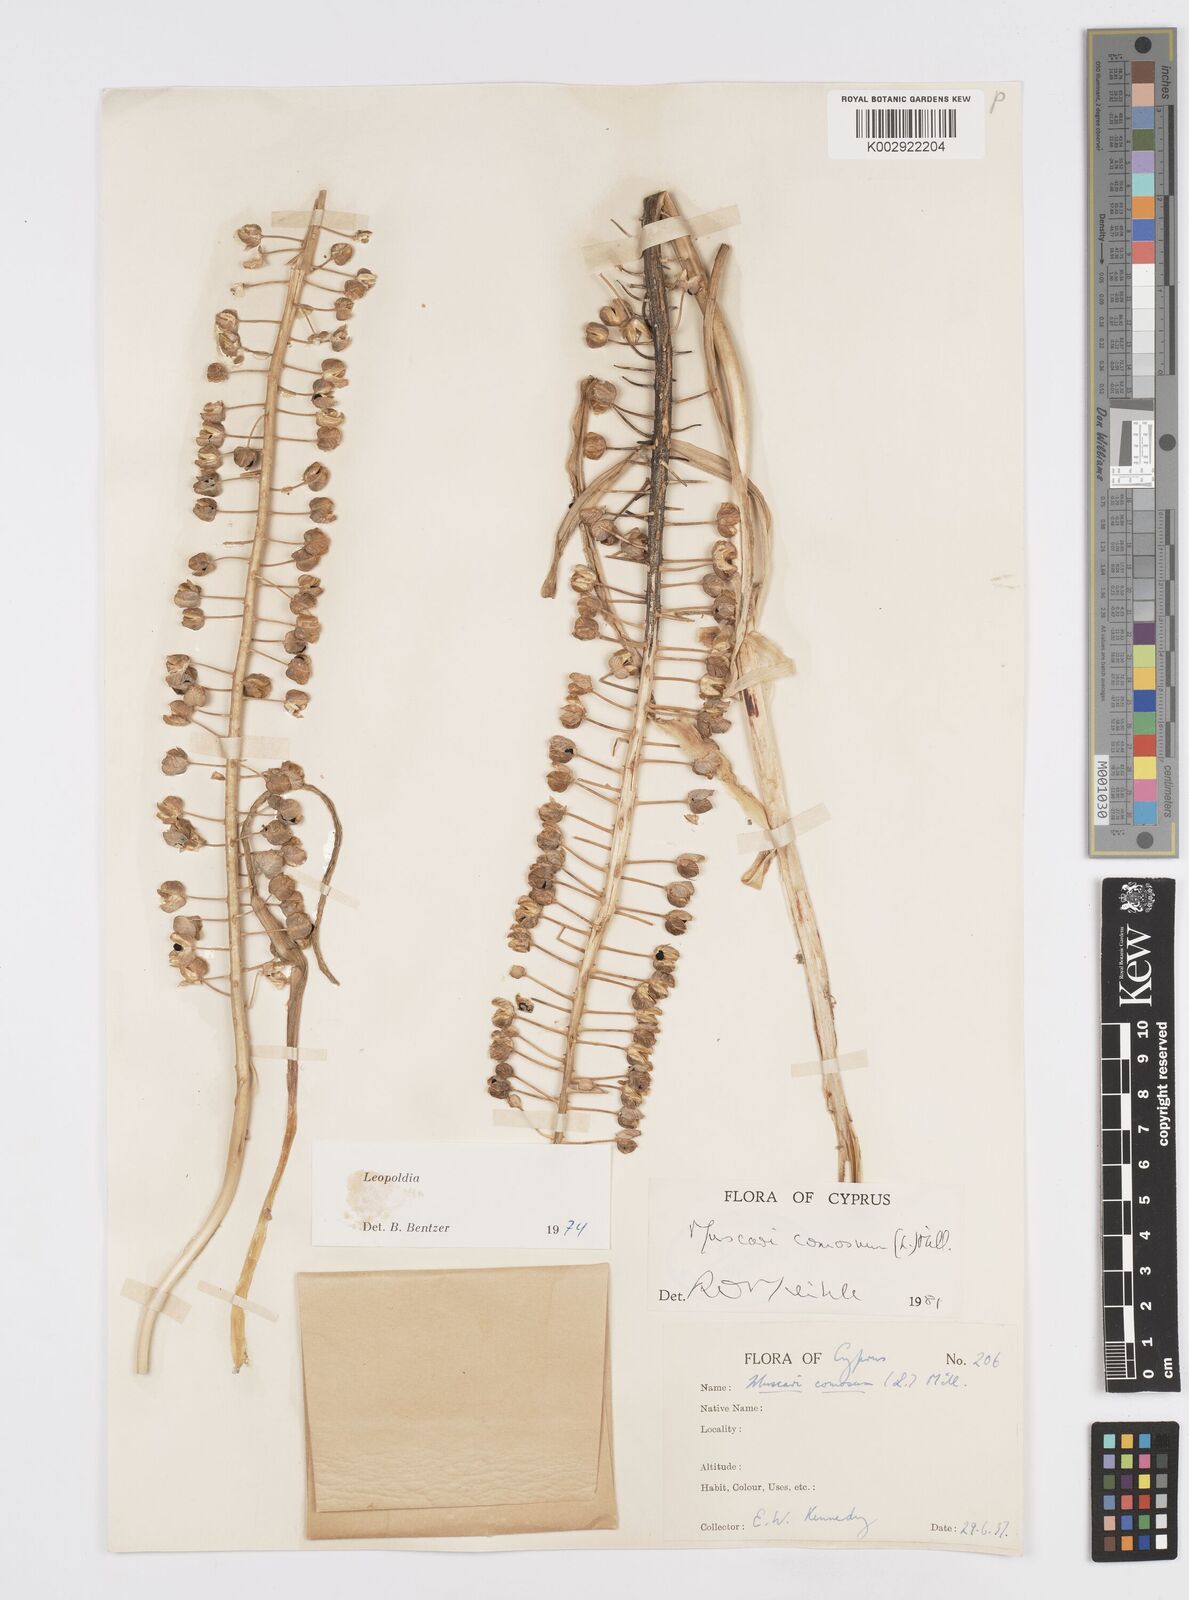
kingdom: Plantae
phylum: Tracheophyta
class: Liliopsida
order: Asparagales
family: Asparagaceae
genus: Muscari
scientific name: Muscari comosum
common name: Tassel hyacinth
